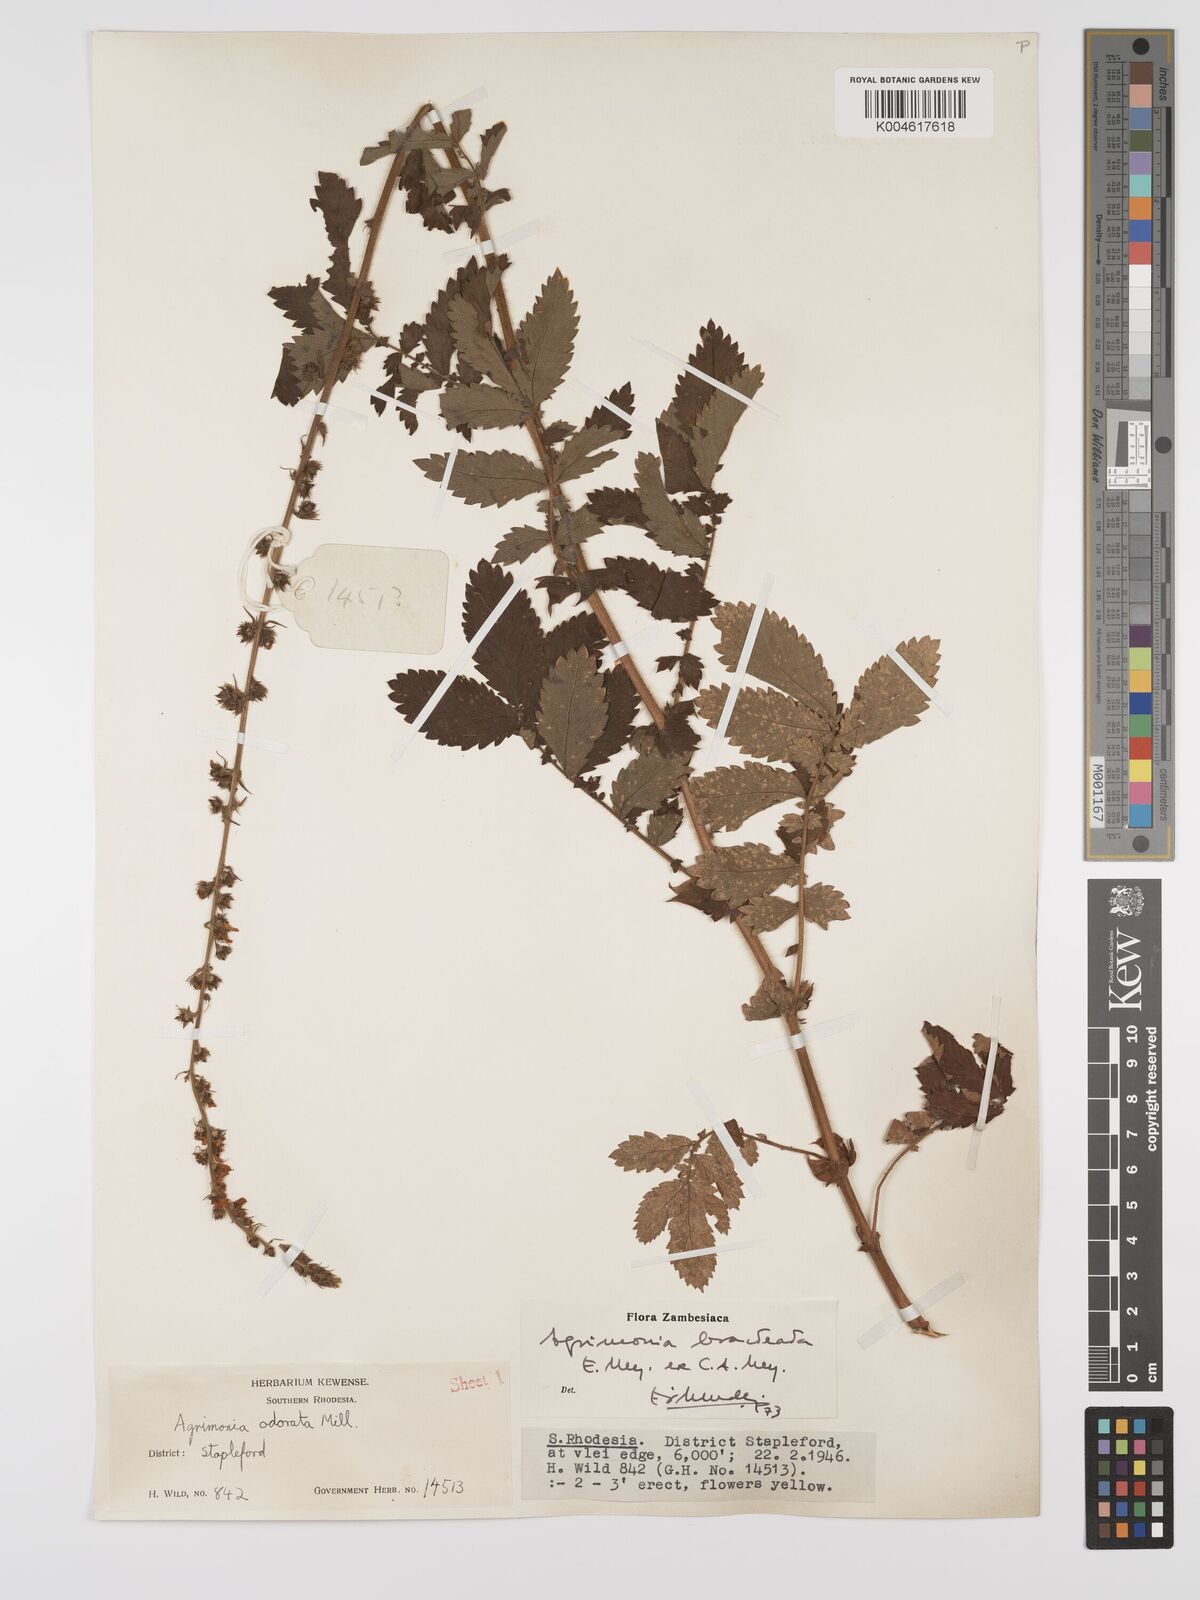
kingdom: Plantae
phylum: Tracheophyta
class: Magnoliopsida
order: Rosales
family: Rosaceae
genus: Agrimonia
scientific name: Agrimonia bracteata
